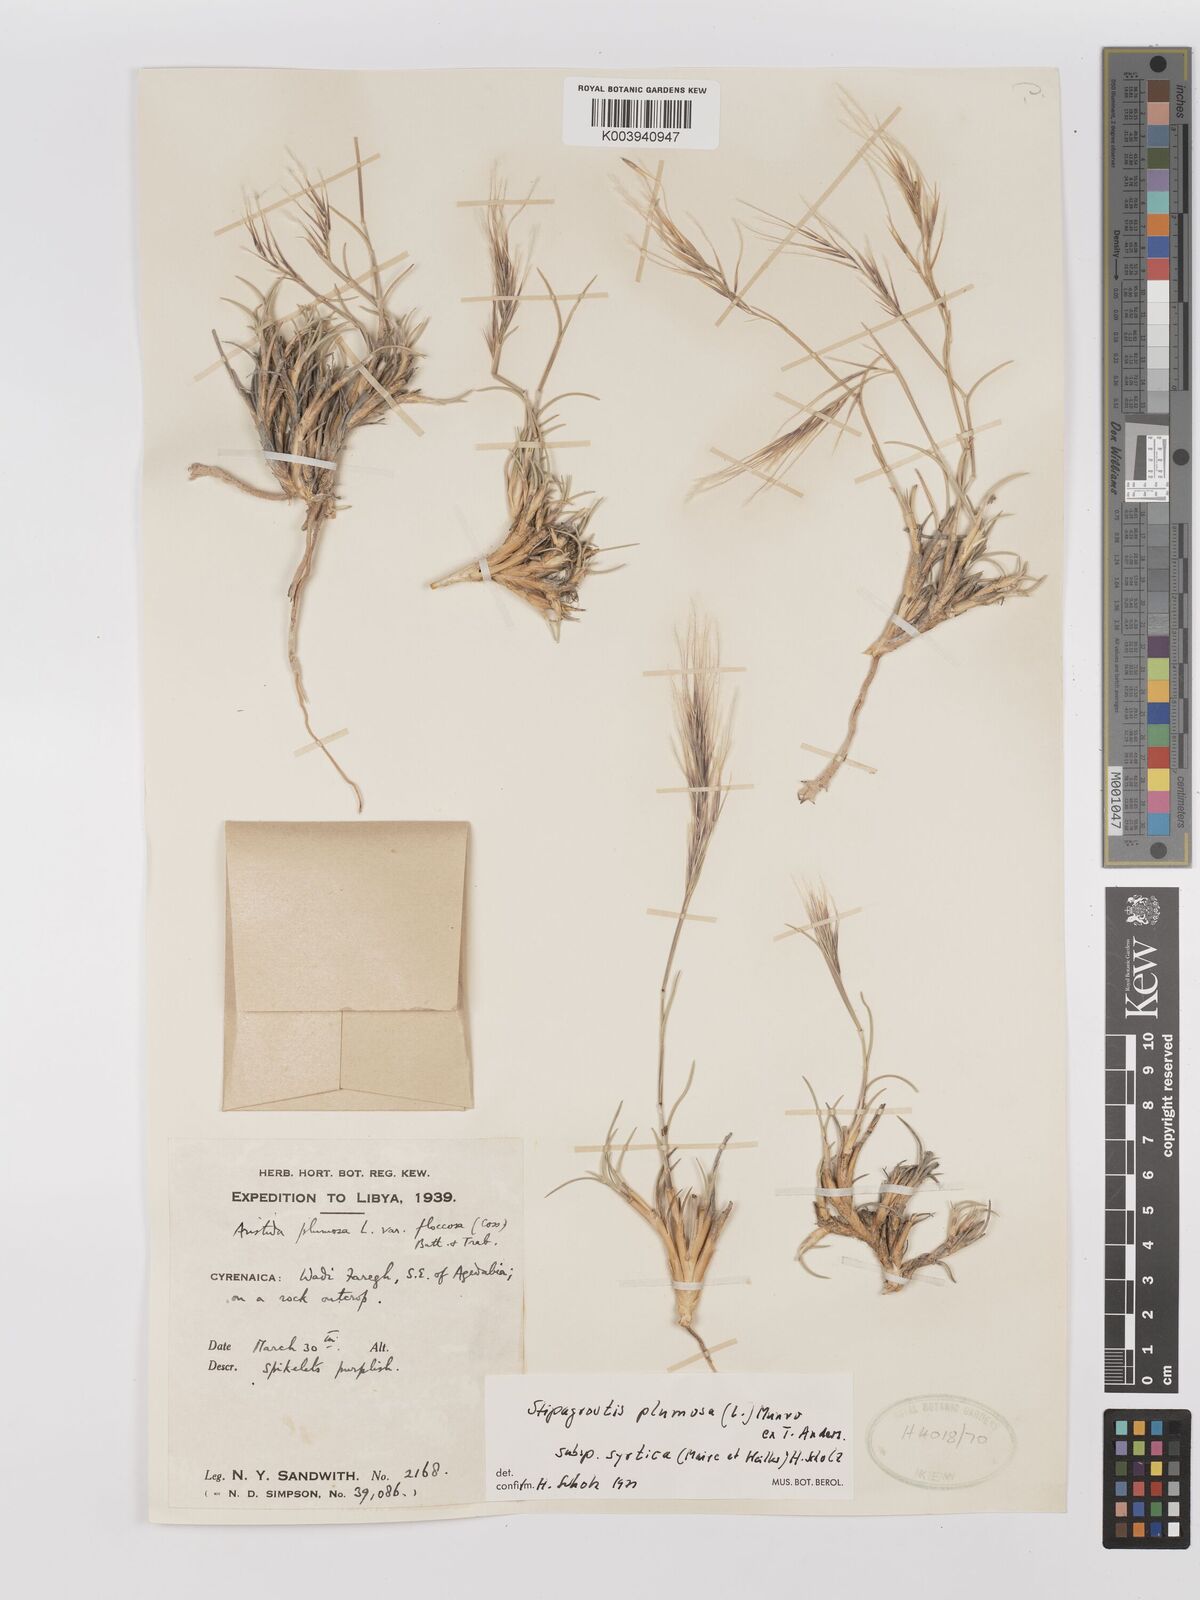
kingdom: Plantae
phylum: Tracheophyta
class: Liliopsida
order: Poales
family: Poaceae
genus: Stipagrostis
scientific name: Stipagrostis plumosa
